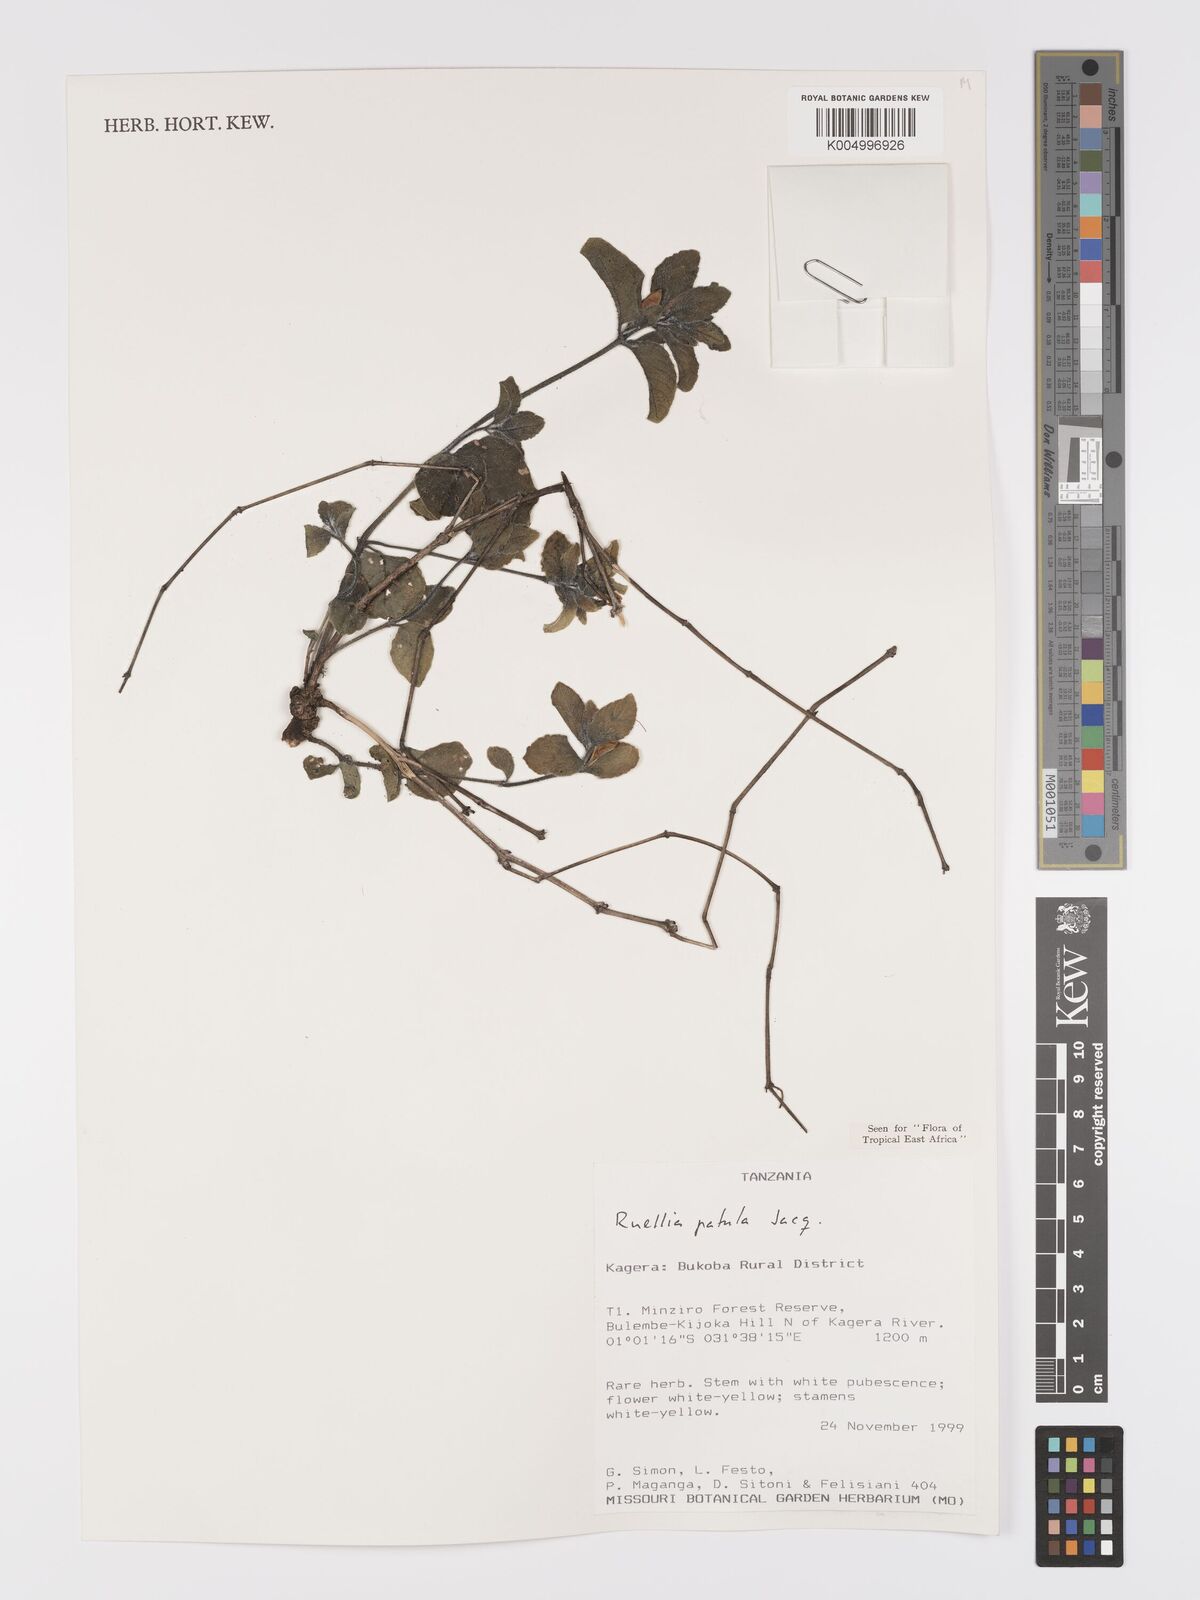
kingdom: Plantae
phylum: Tracheophyta
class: Magnoliopsida
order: Lamiales
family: Acanthaceae
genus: Ruellia
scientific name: Ruellia patula
